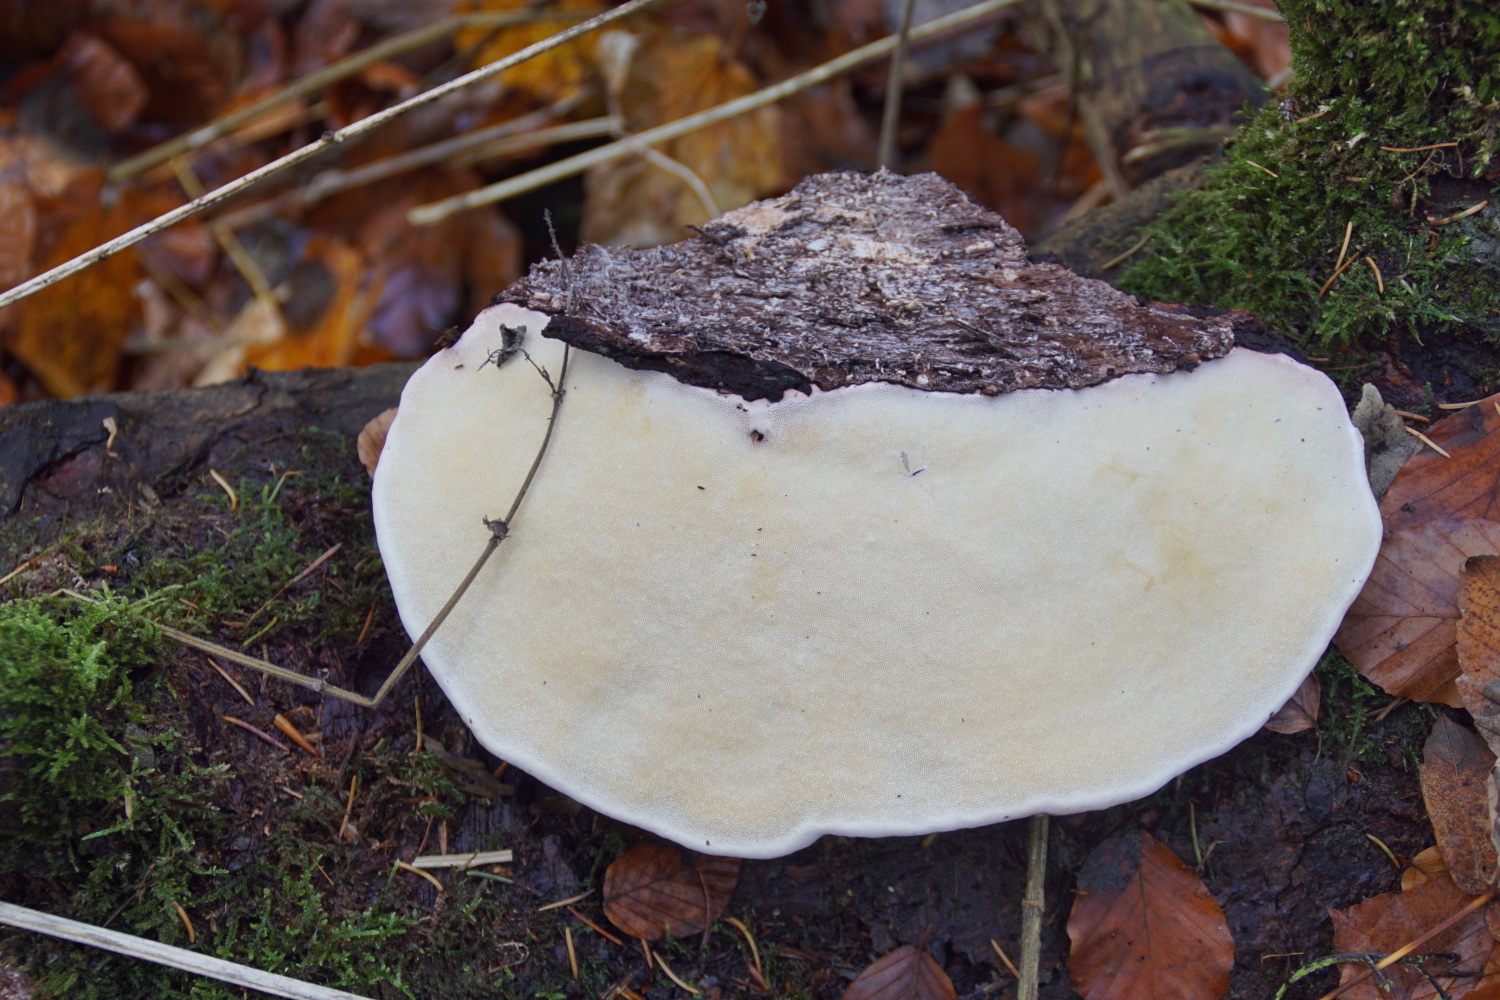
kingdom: Fungi
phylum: Basidiomycota
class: Agaricomycetes
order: Polyporales
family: Fomitopsidaceae
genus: Fomitopsis
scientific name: Fomitopsis pinicola
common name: randbæltet hovporesvamp
